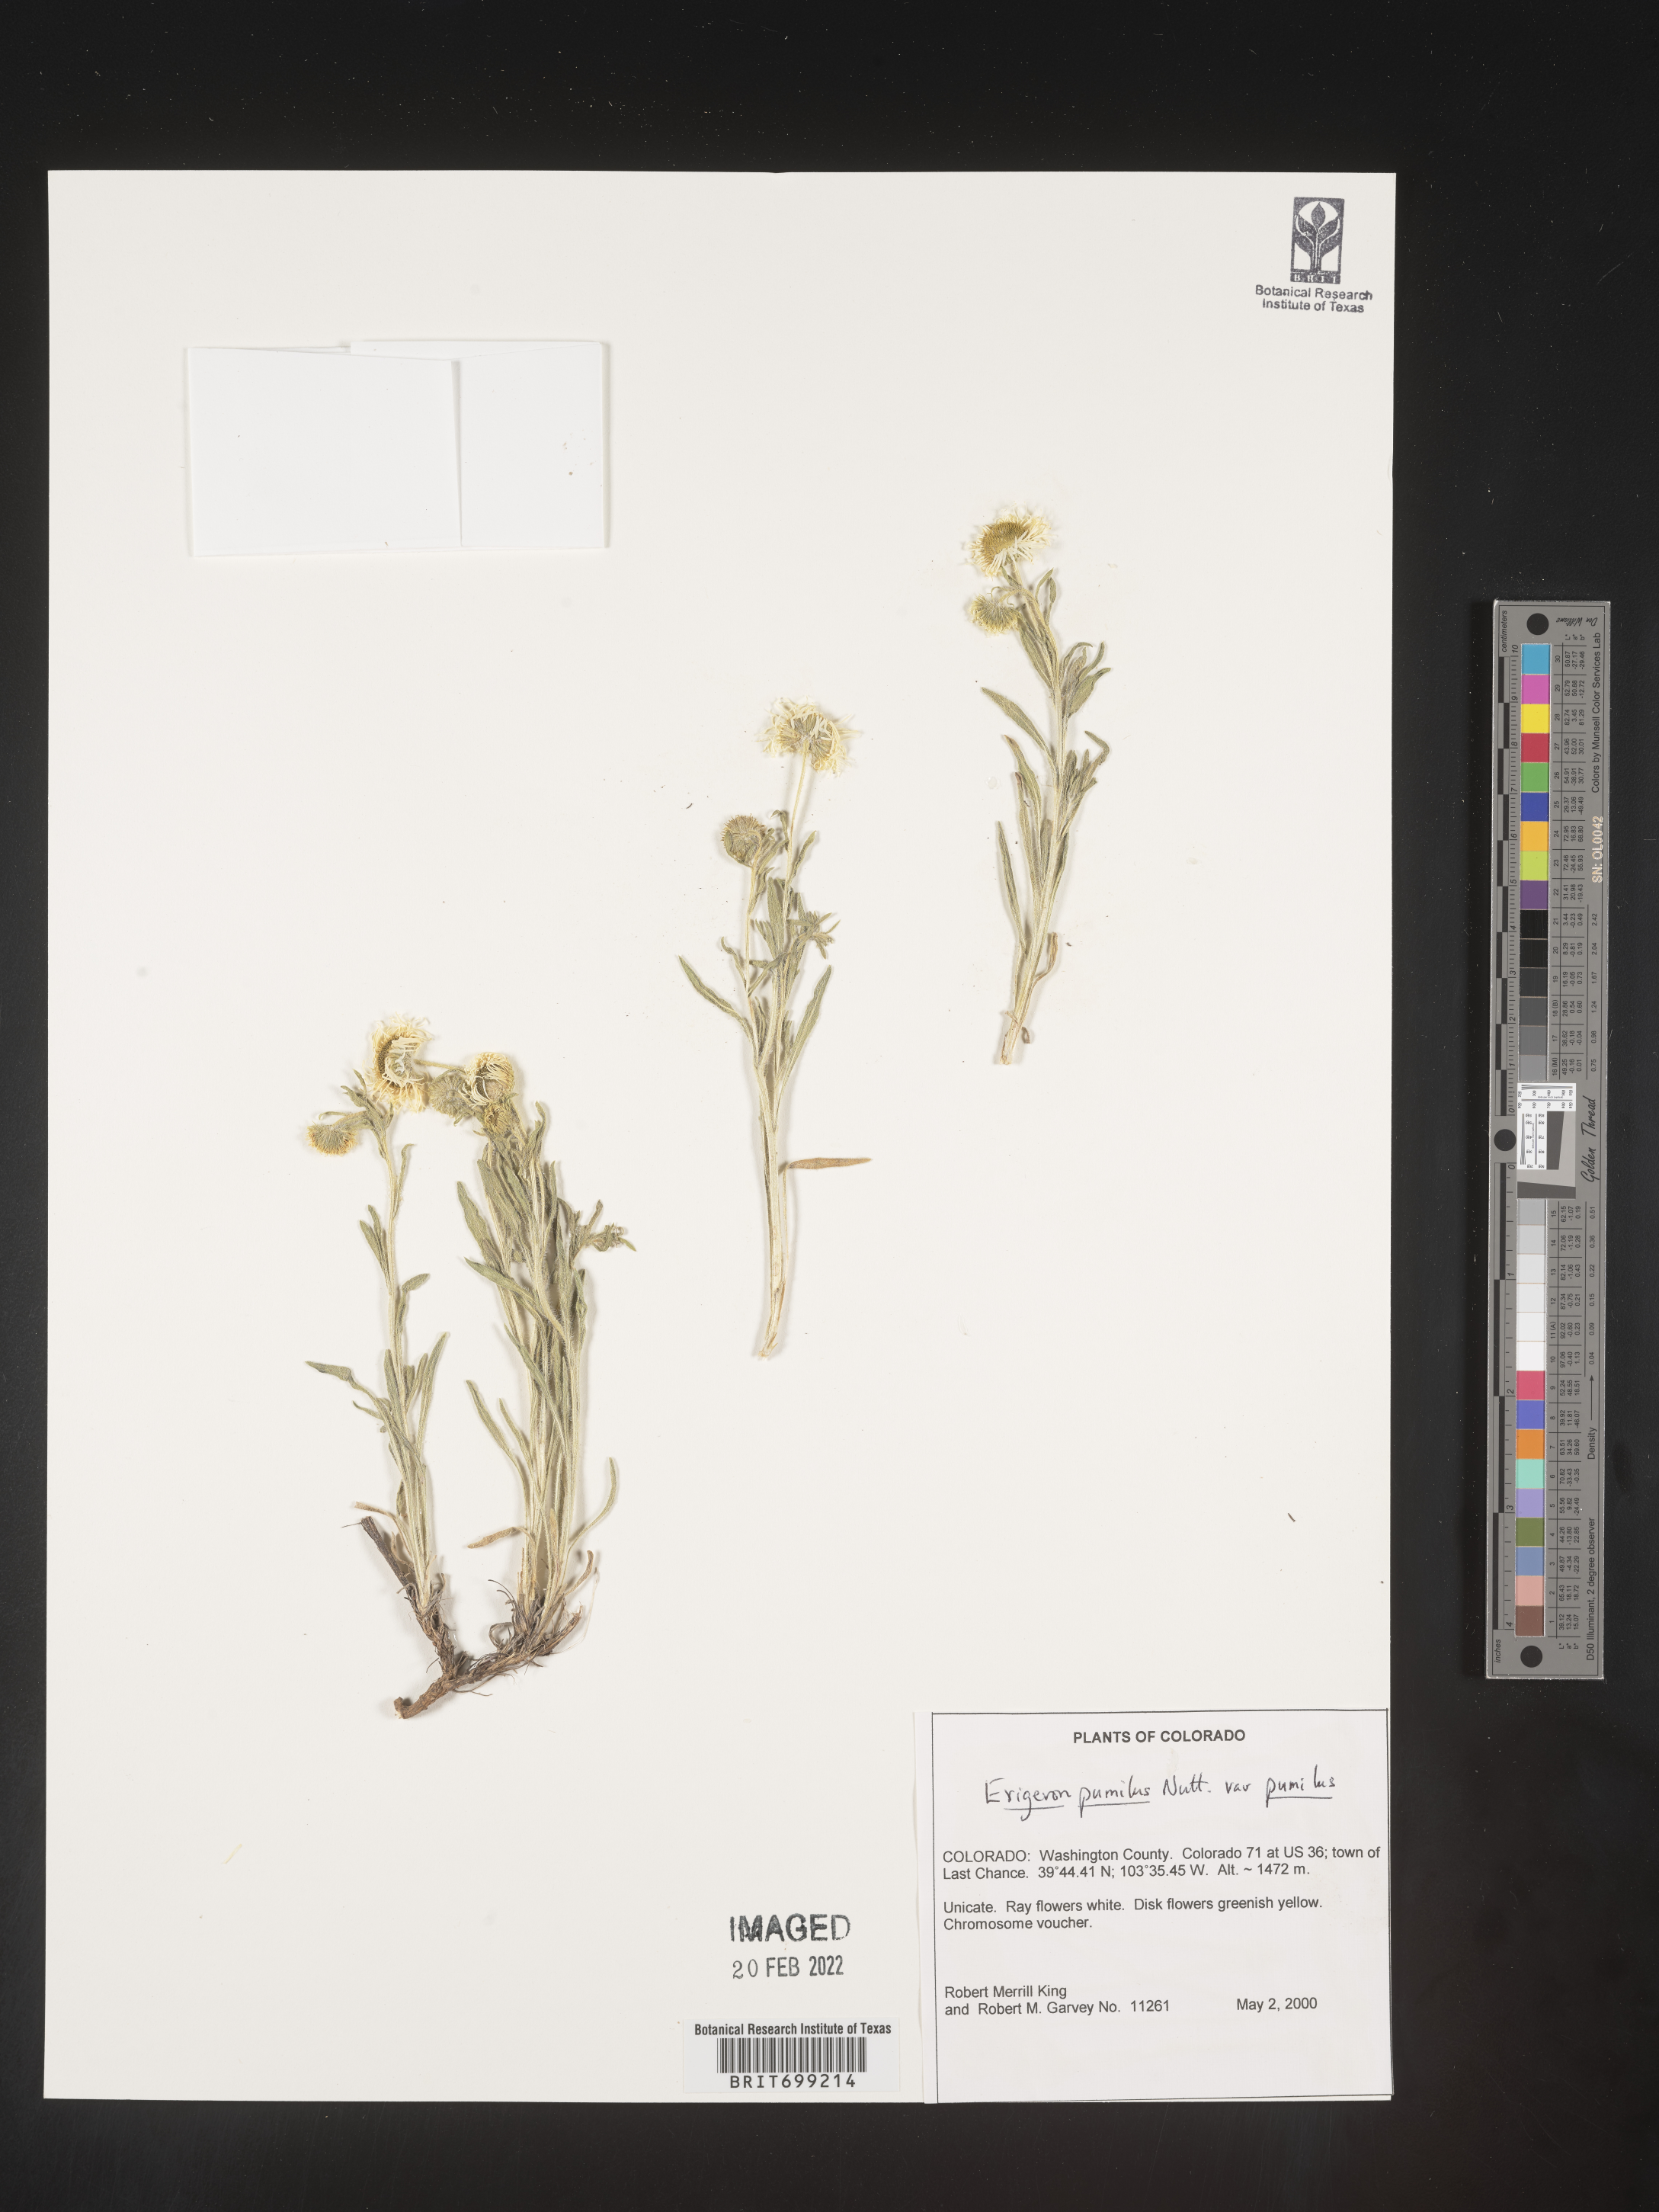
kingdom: Plantae
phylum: Tracheophyta
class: Magnoliopsida
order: Asterales
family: Asteraceae
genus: Erigeron
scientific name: Erigeron pumilus
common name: Shaggy fleabane
